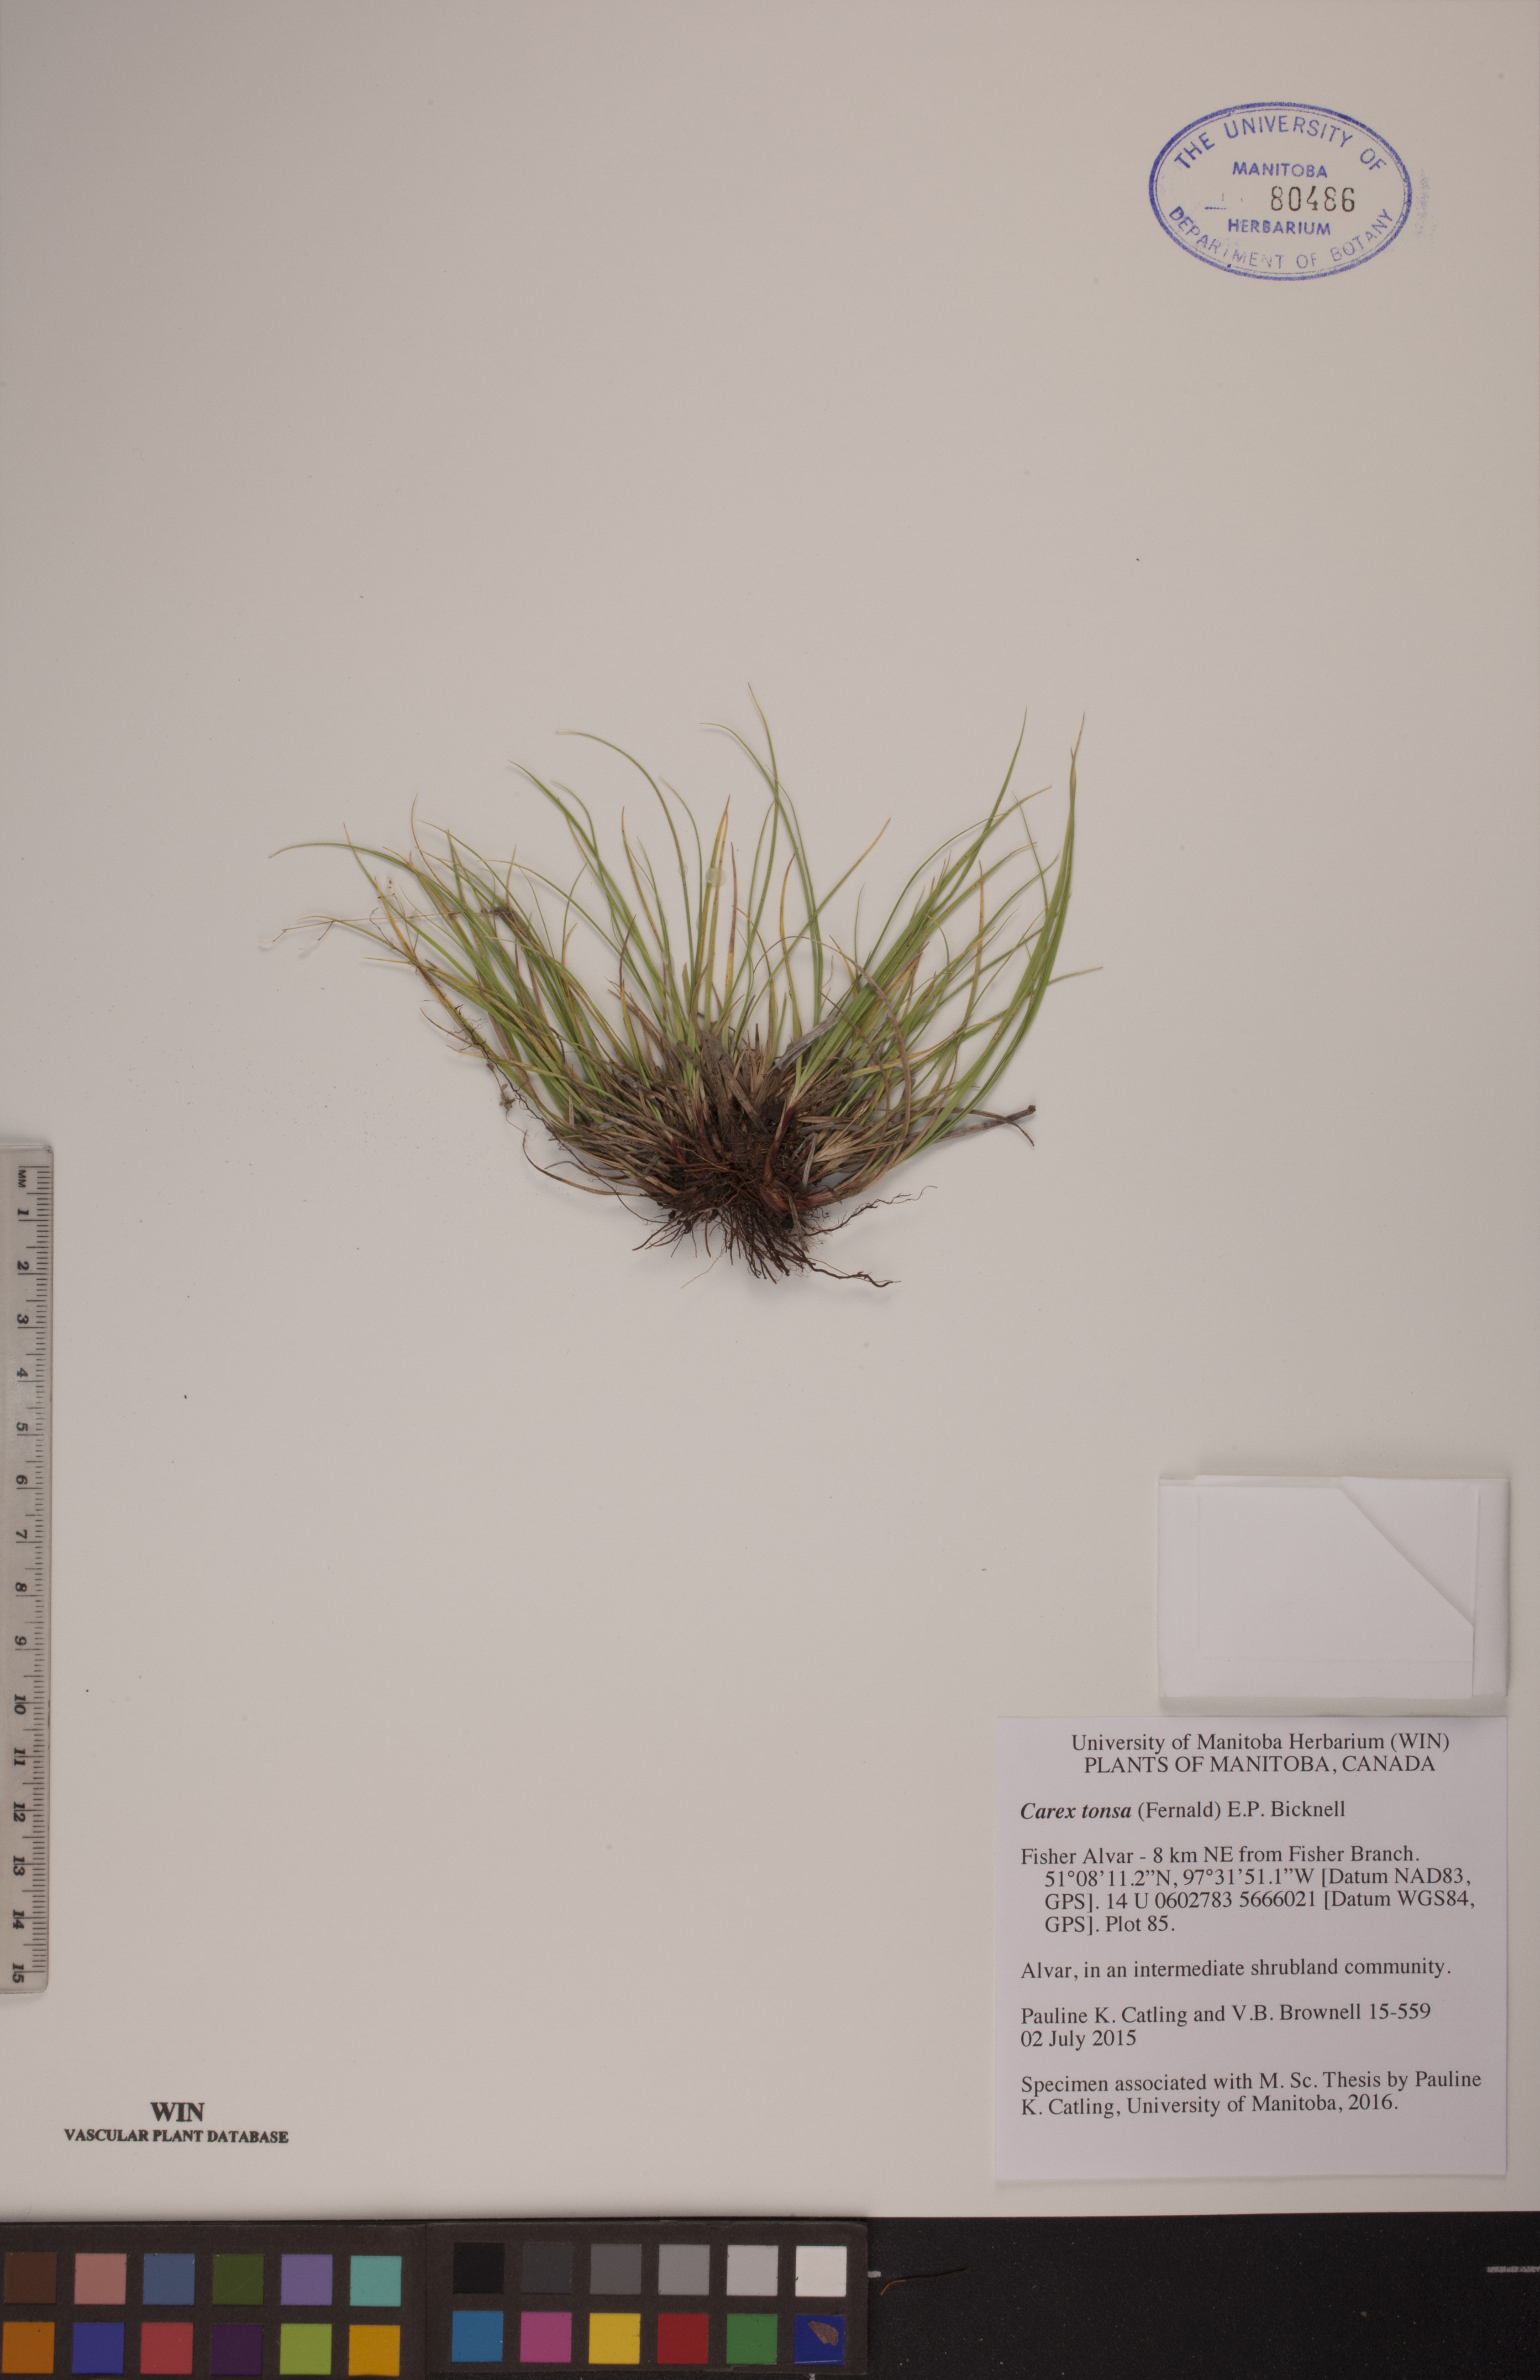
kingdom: Plantae
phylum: Tracheophyta
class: Liliopsida
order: Poales
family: Cyperaceae
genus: Carex
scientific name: Carex tonsa
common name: Bald sedge
